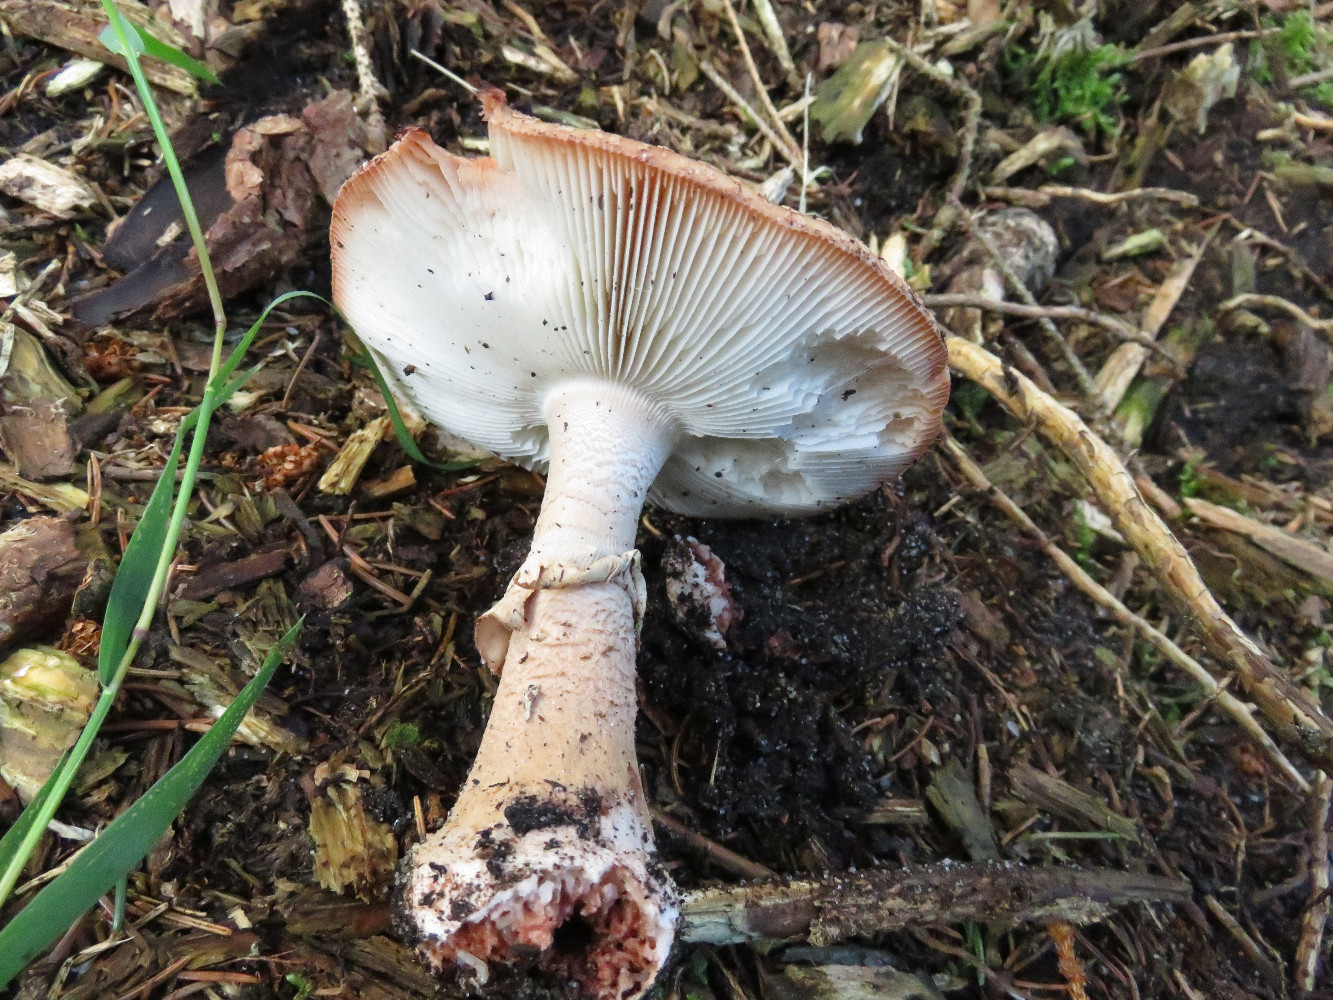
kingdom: Fungi
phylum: Basidiomycota
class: Agaricomycetes
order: Agaricales
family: Amanitaceae
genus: Amanita
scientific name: Amanita rubescens
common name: rødmende fluesvamp
